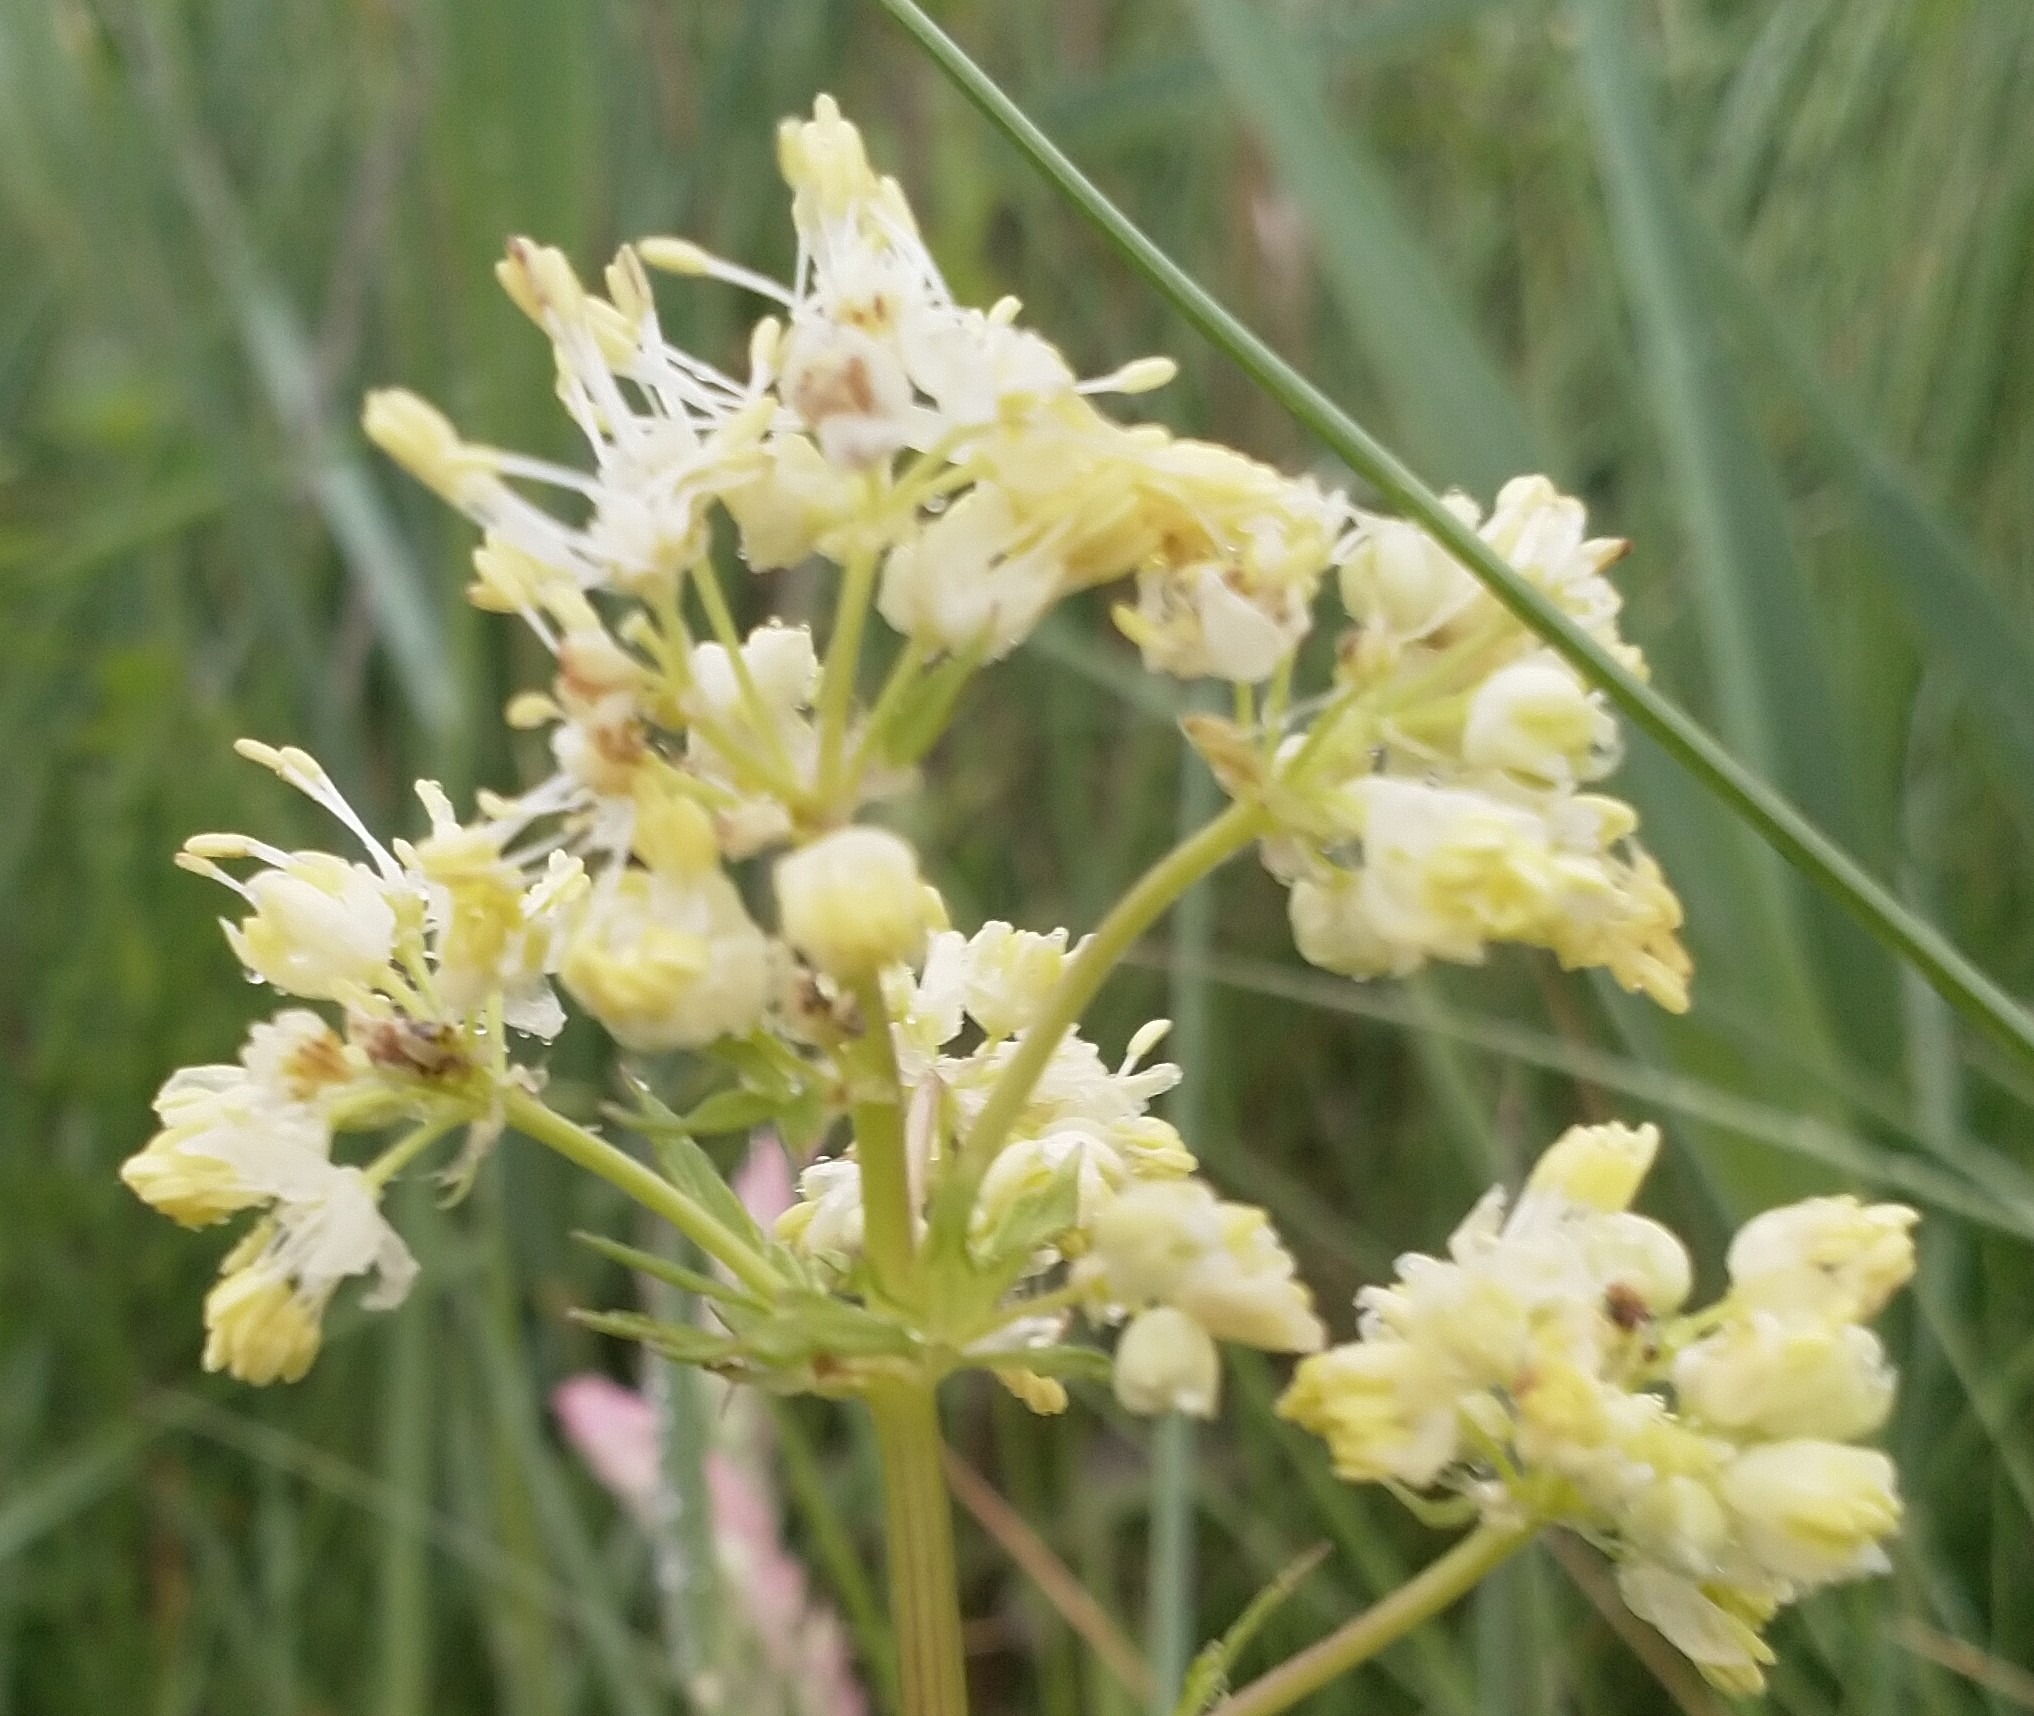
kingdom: Plantae
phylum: Tracheophyta
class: Magnoliopsida
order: Ranunculales
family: Ranunculaceae
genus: Thalictrum
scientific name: Thalictrum flavum
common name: Gul frøstjerne
